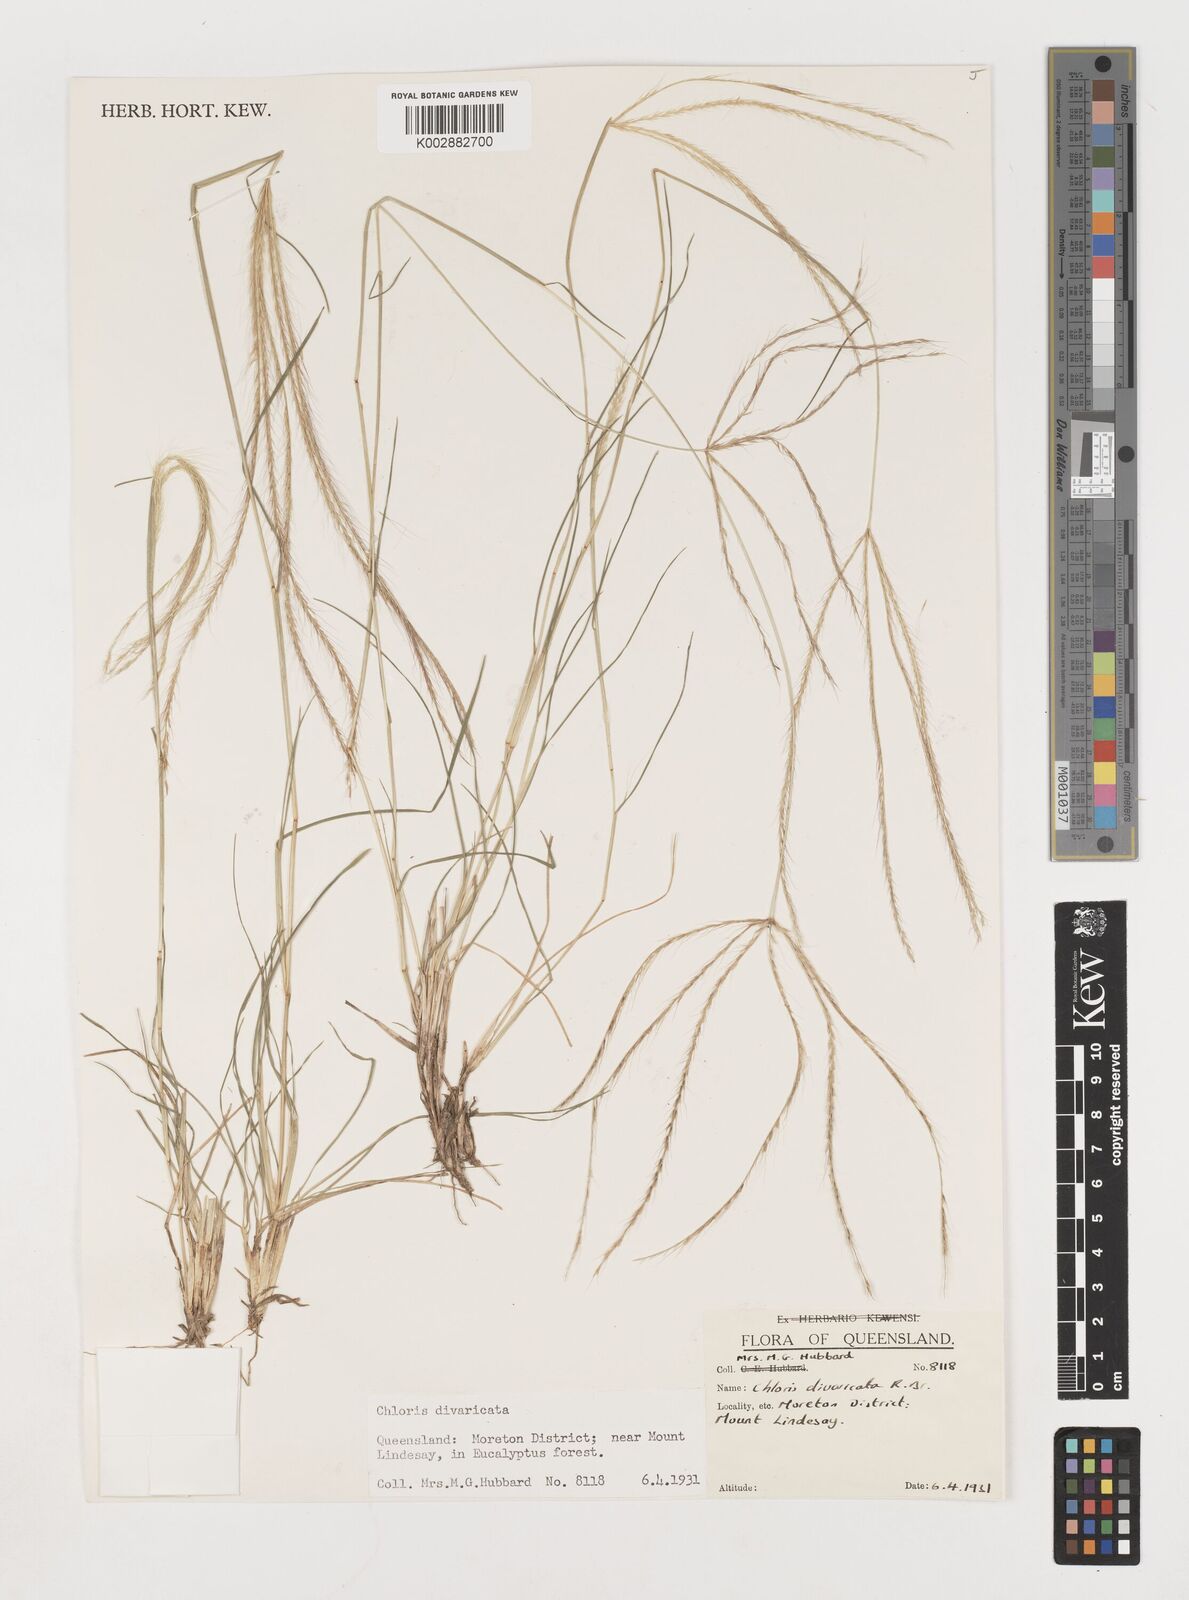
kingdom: Plantae
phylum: Tracheophyta
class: Liliopsida
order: Poales
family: Poaceae
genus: Chloris
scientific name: Chloris divaricata
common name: Spreading windmill grass
